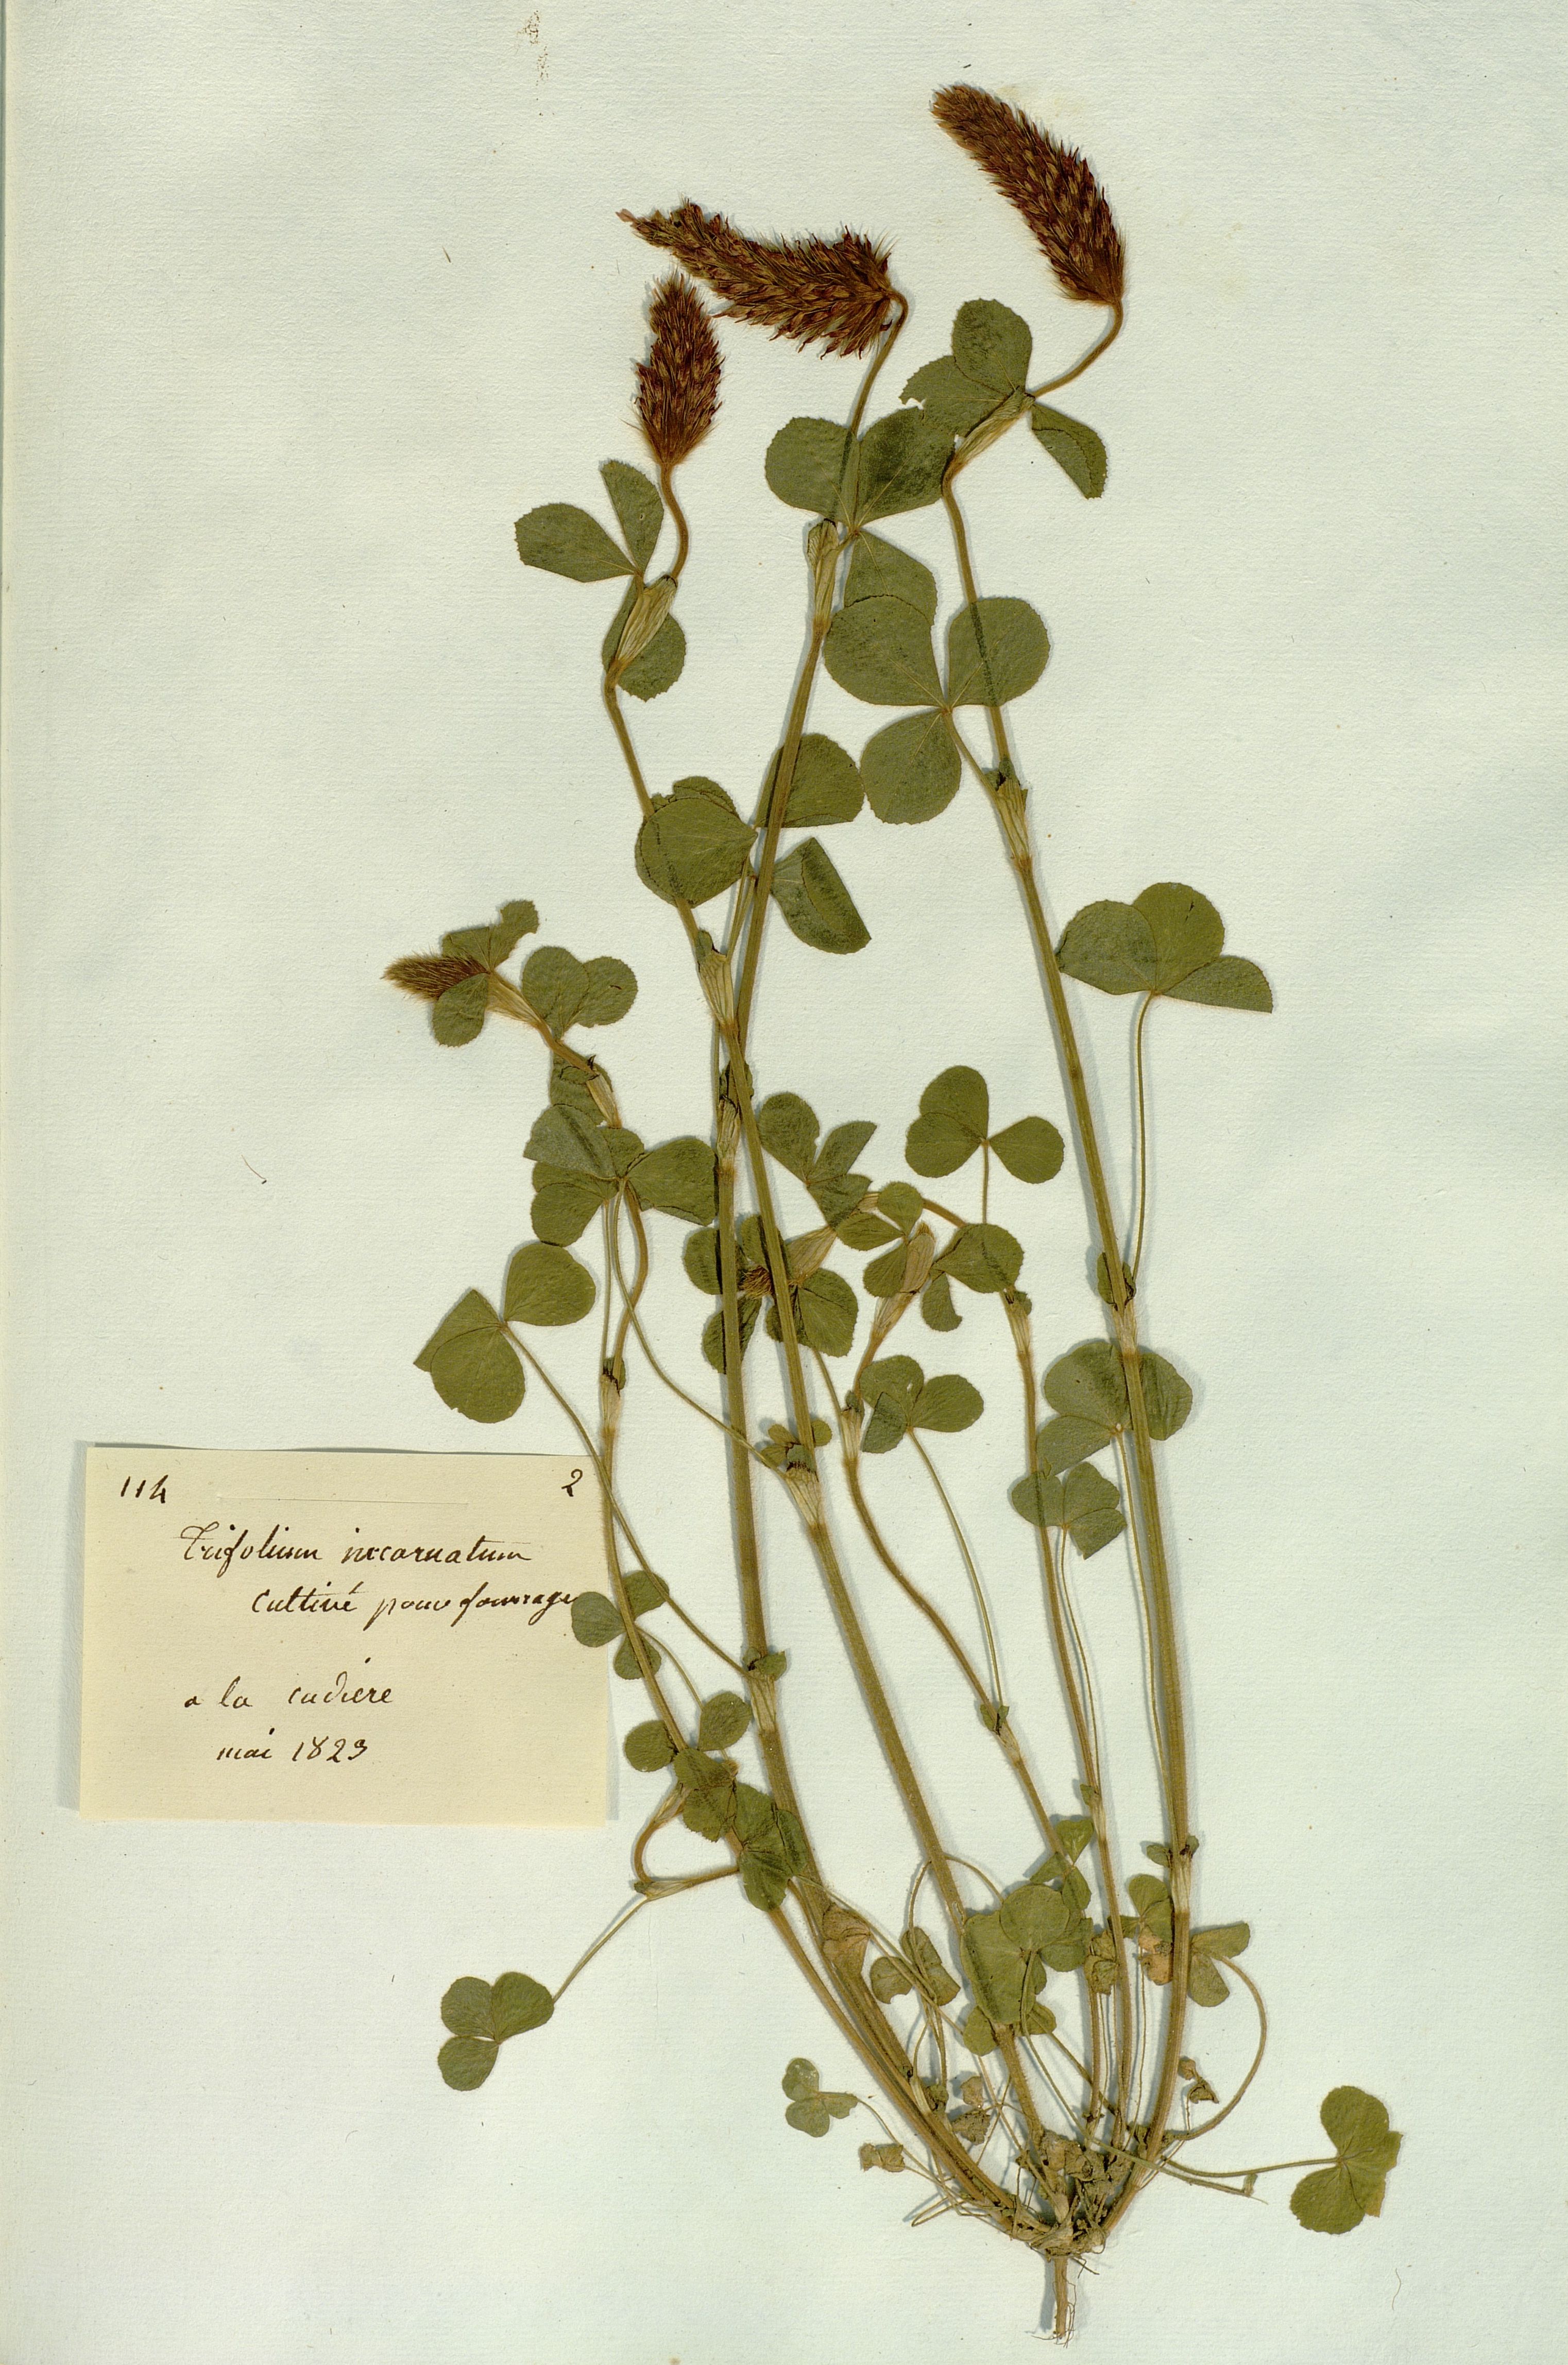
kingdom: Plantae
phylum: Tracheophyta
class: Magnoliopsida
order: Fabales
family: Fabaceae
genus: Trifolium
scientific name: Trifolium incarnatum
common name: Crimson clover
